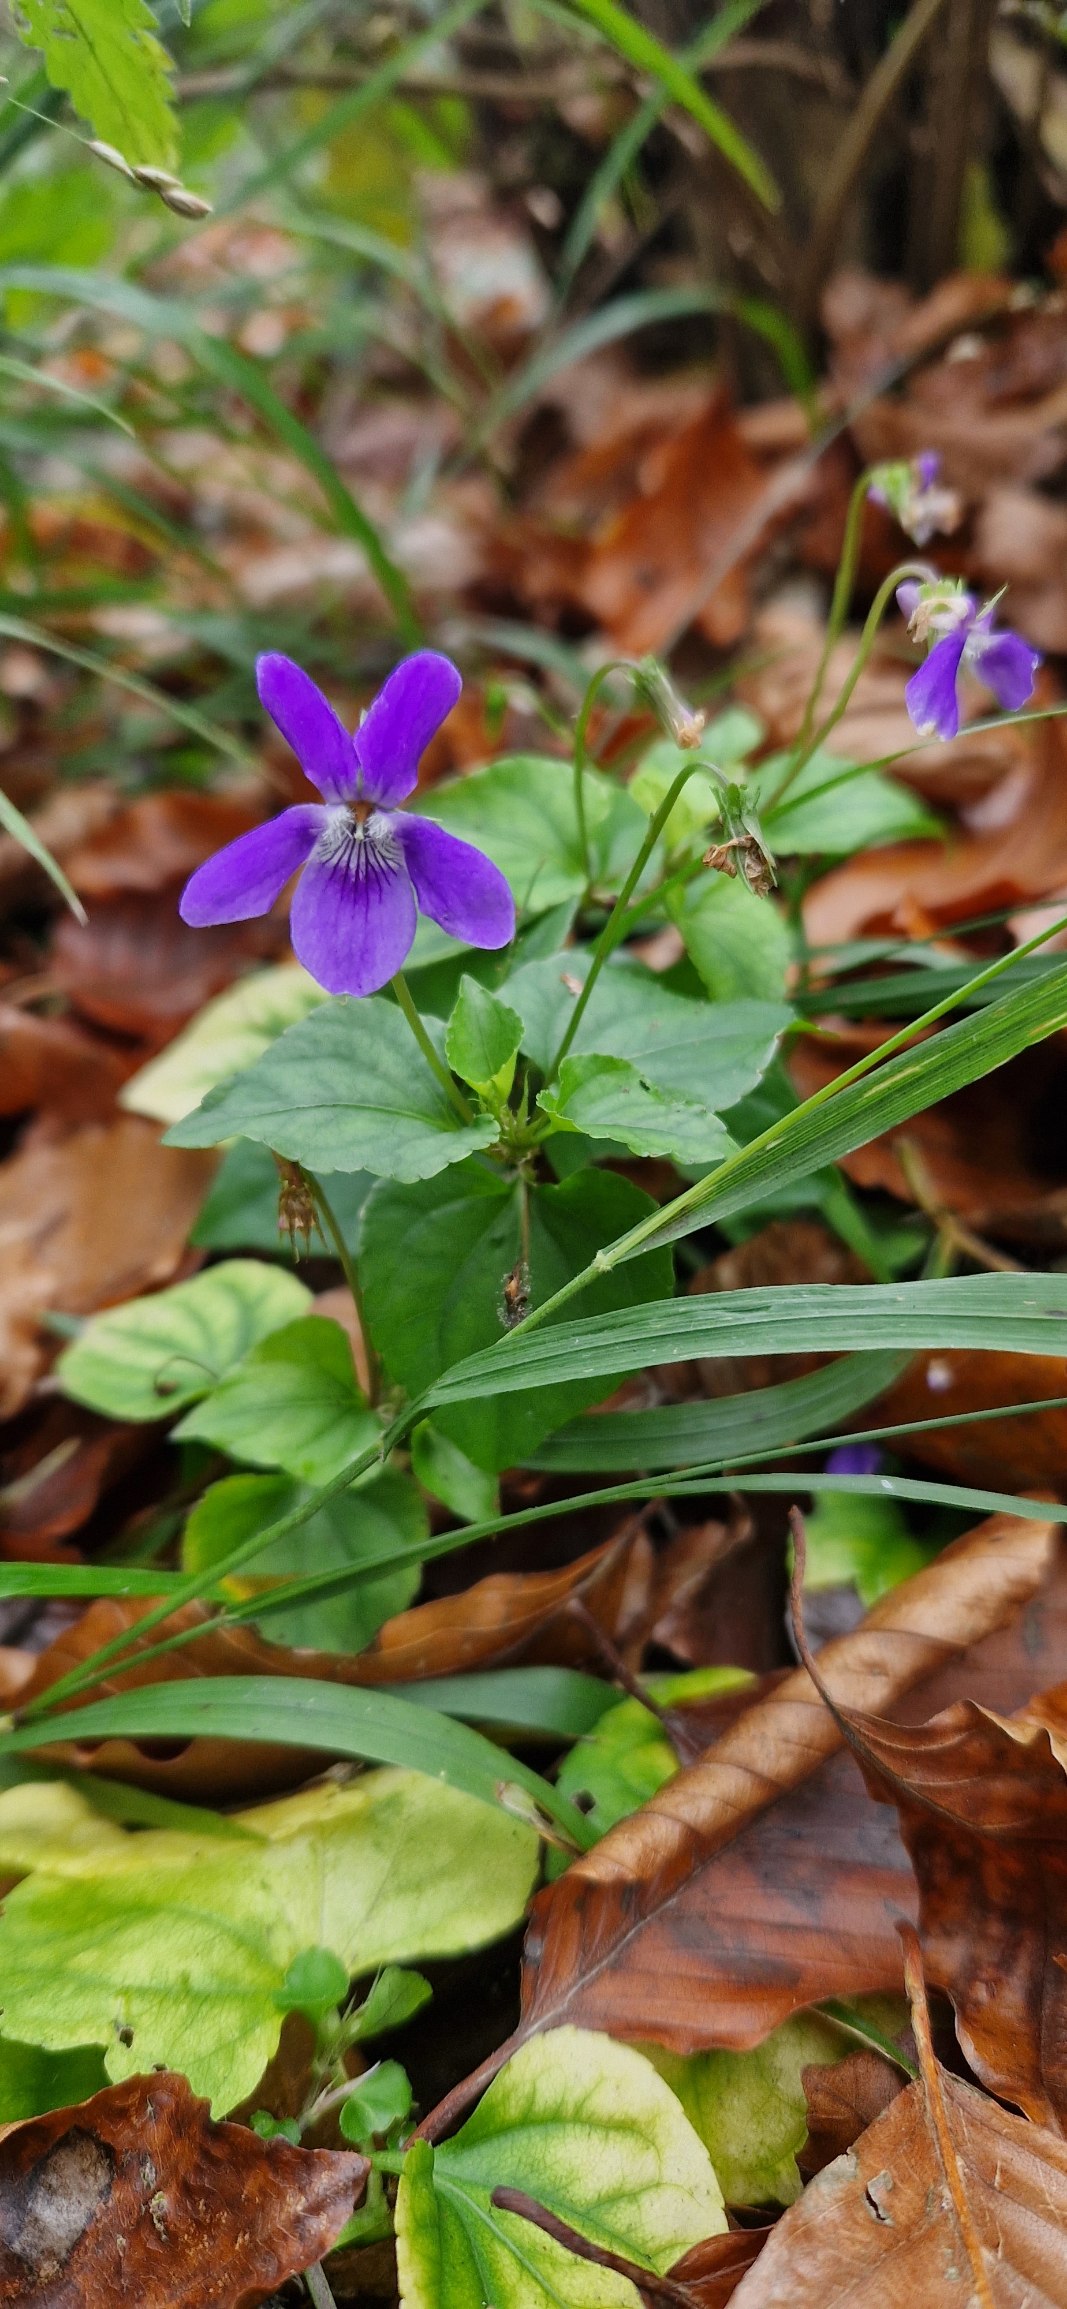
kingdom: Plantae
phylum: Tracheophyta
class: Magnoliopsida
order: Malpighiales
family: Violaceae
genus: Viola
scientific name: Viola riviniana
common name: Krat-viol
